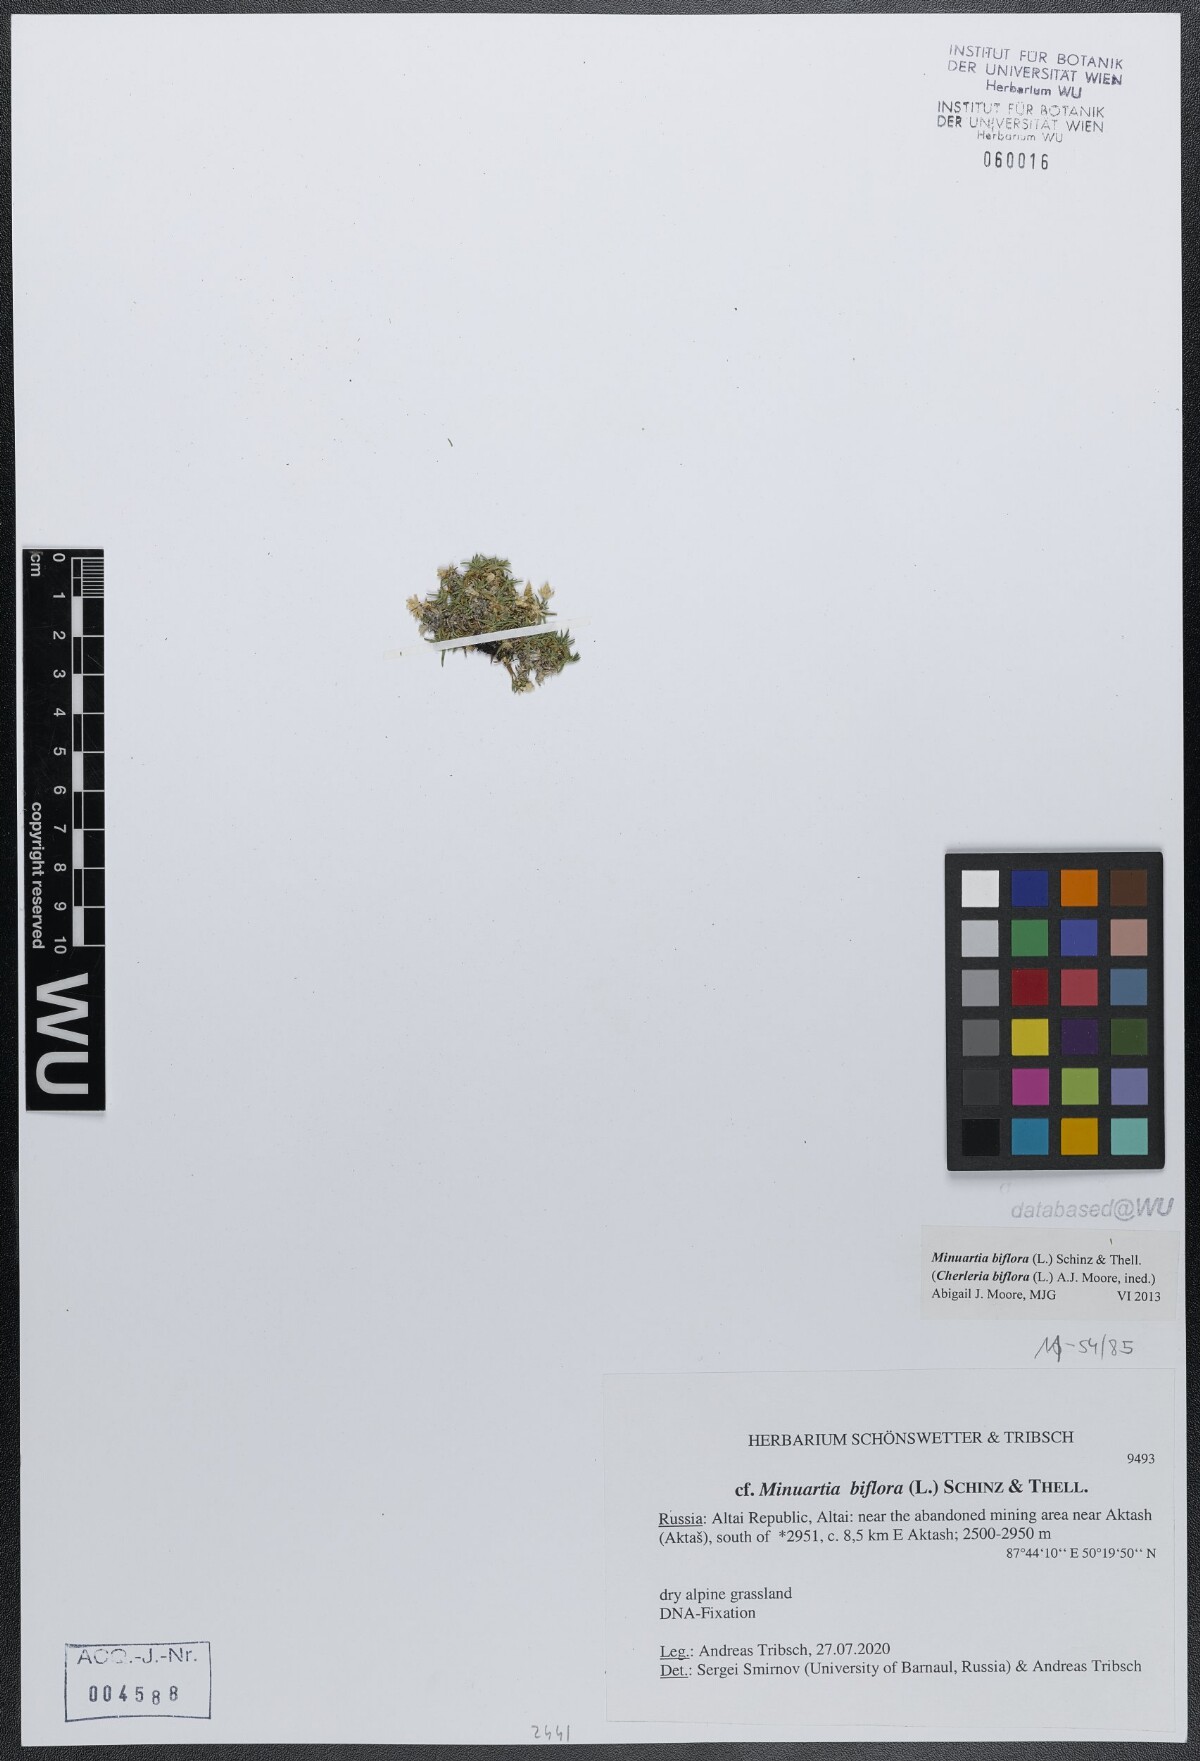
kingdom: Plantae
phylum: Tracheophyta
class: Magnoliopsida
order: Caryophyllales
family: Caryophyllaceae
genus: Cherleria
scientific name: Cherleria biflora
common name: Mountain sandwort
